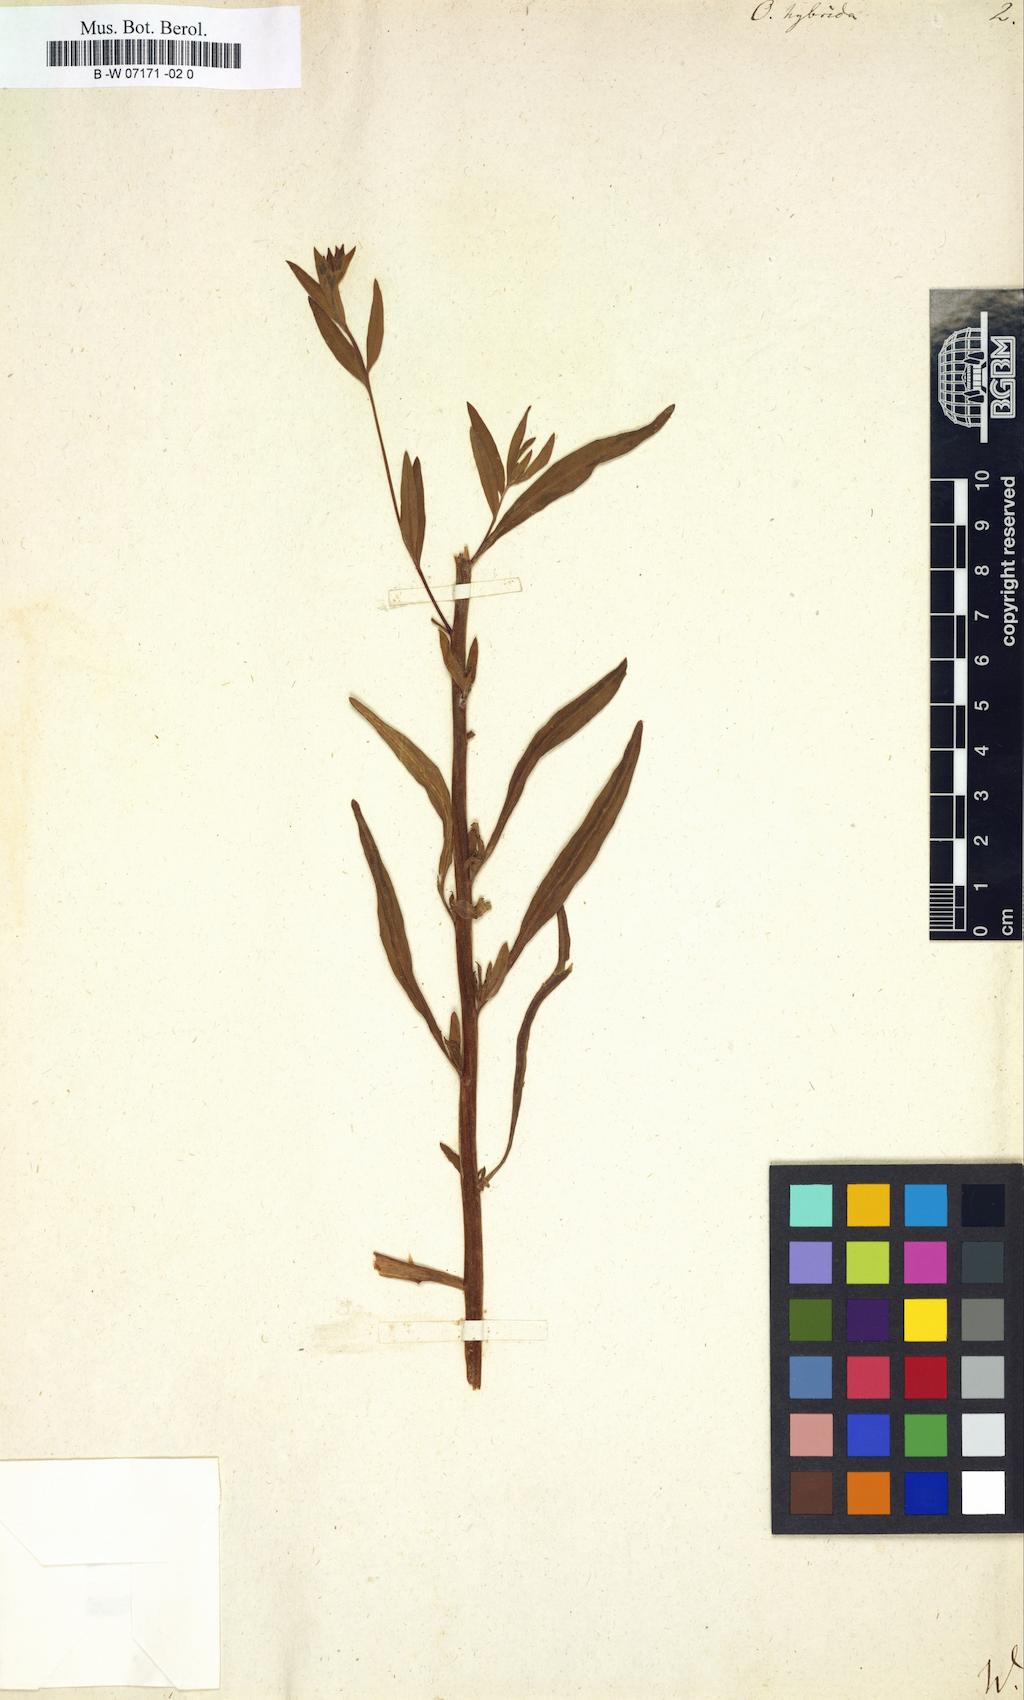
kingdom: Plantae
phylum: Tracheophyta
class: Magnoliopsida
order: Myrtales
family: Onagraceae
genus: Oenothera
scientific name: Oenothera tetragona
